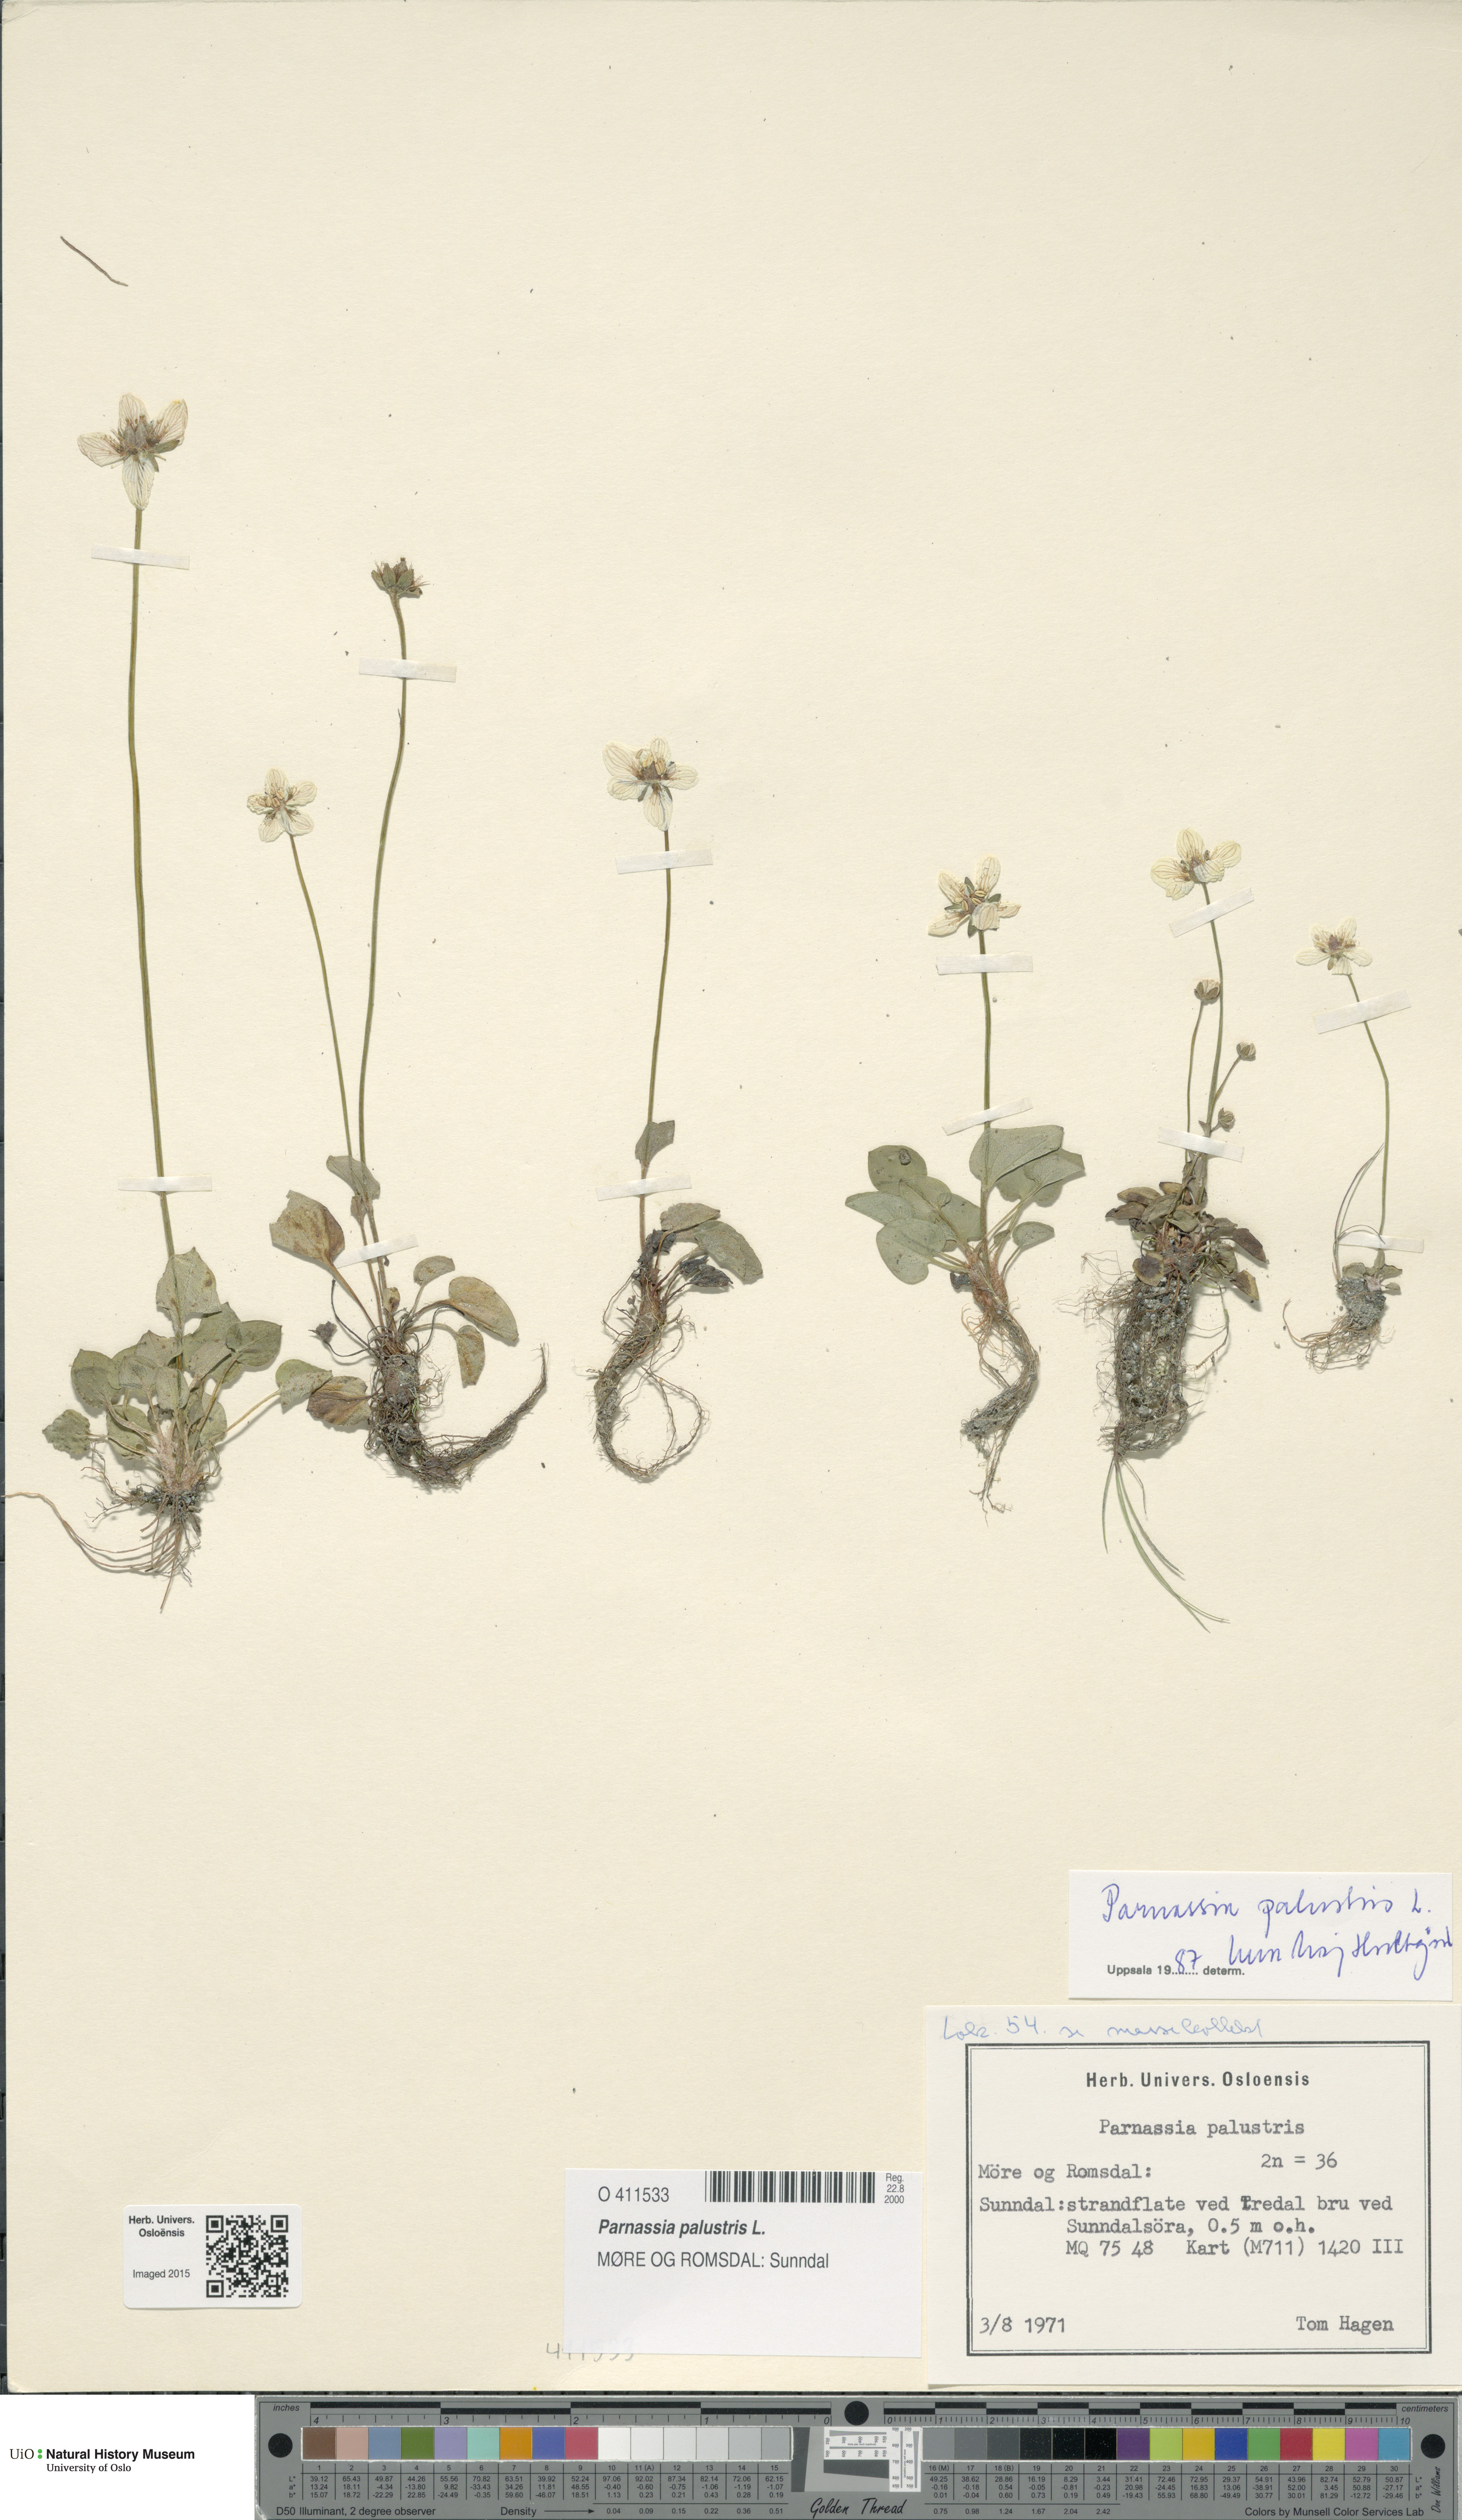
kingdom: Plantae
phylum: Tracheophyta
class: Magnoliopsida
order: Celastrales
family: Parnassiaceae
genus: Parnassia
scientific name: Parnassia palustris
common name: Grass-of-parnassus
